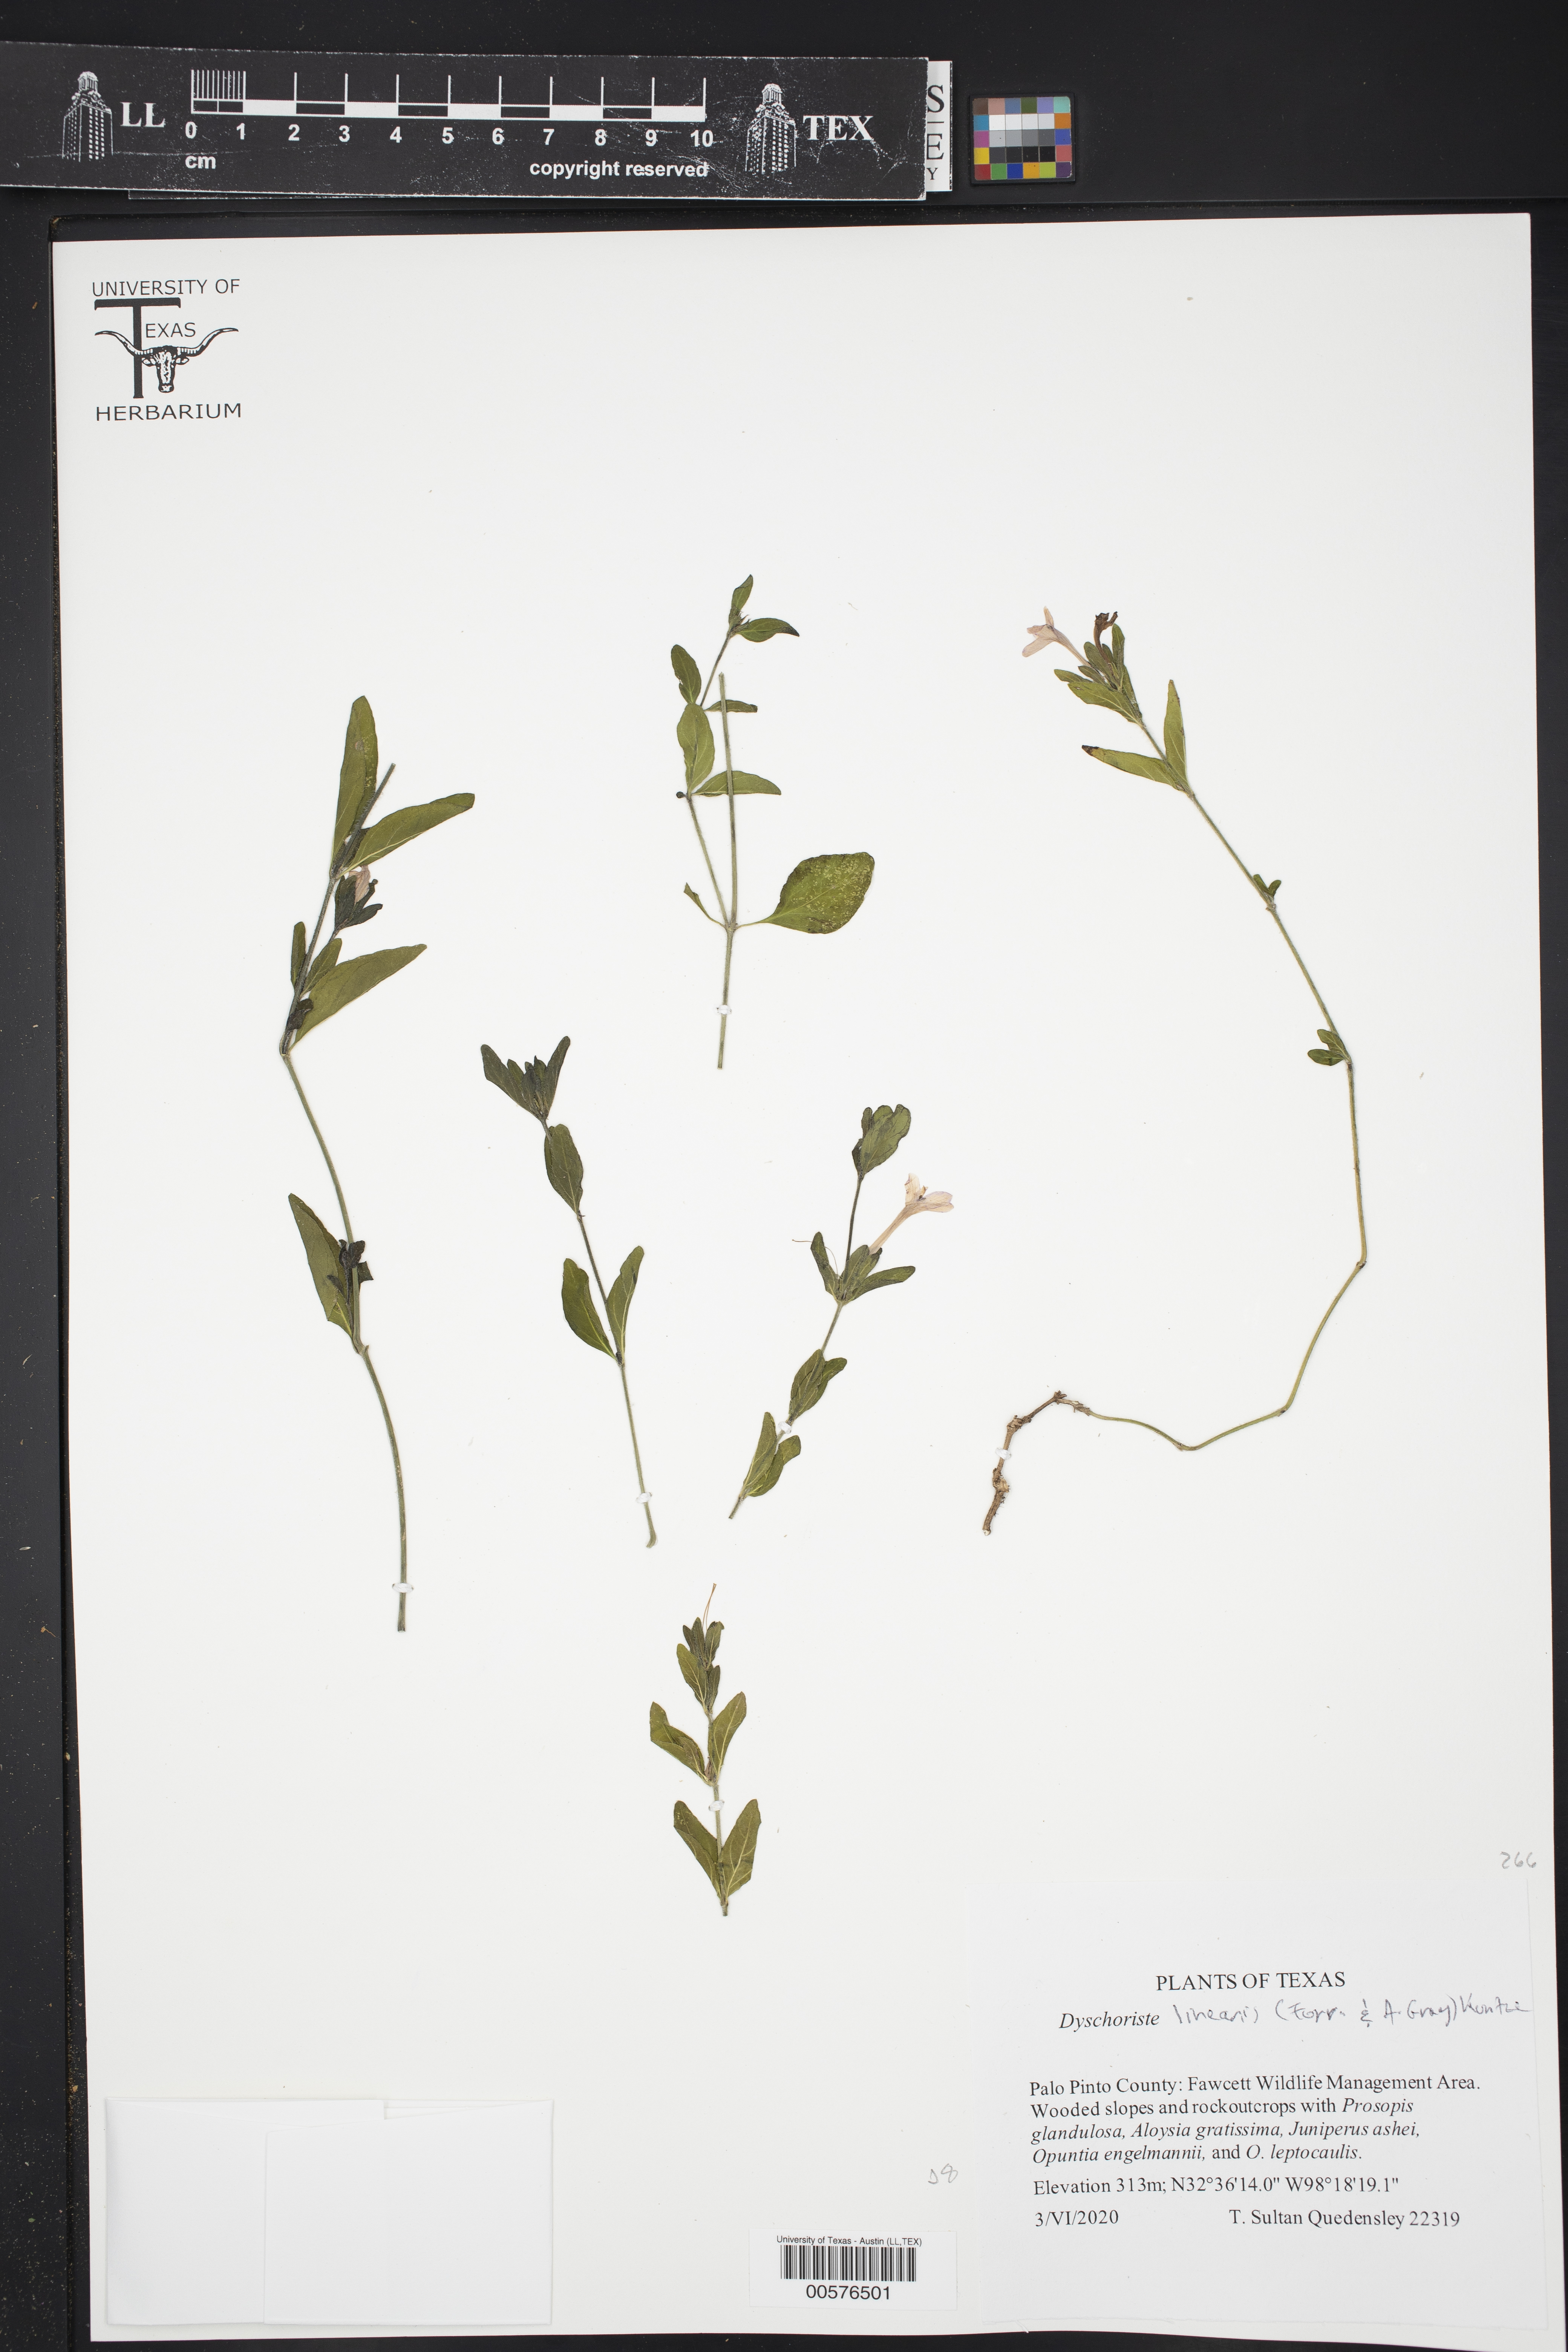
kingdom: Plantae
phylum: Tracheophyta
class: Magnoliopsida
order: Lamiales
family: Acanthaceae
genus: Dyschoriste
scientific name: Dyschoriste linearis
